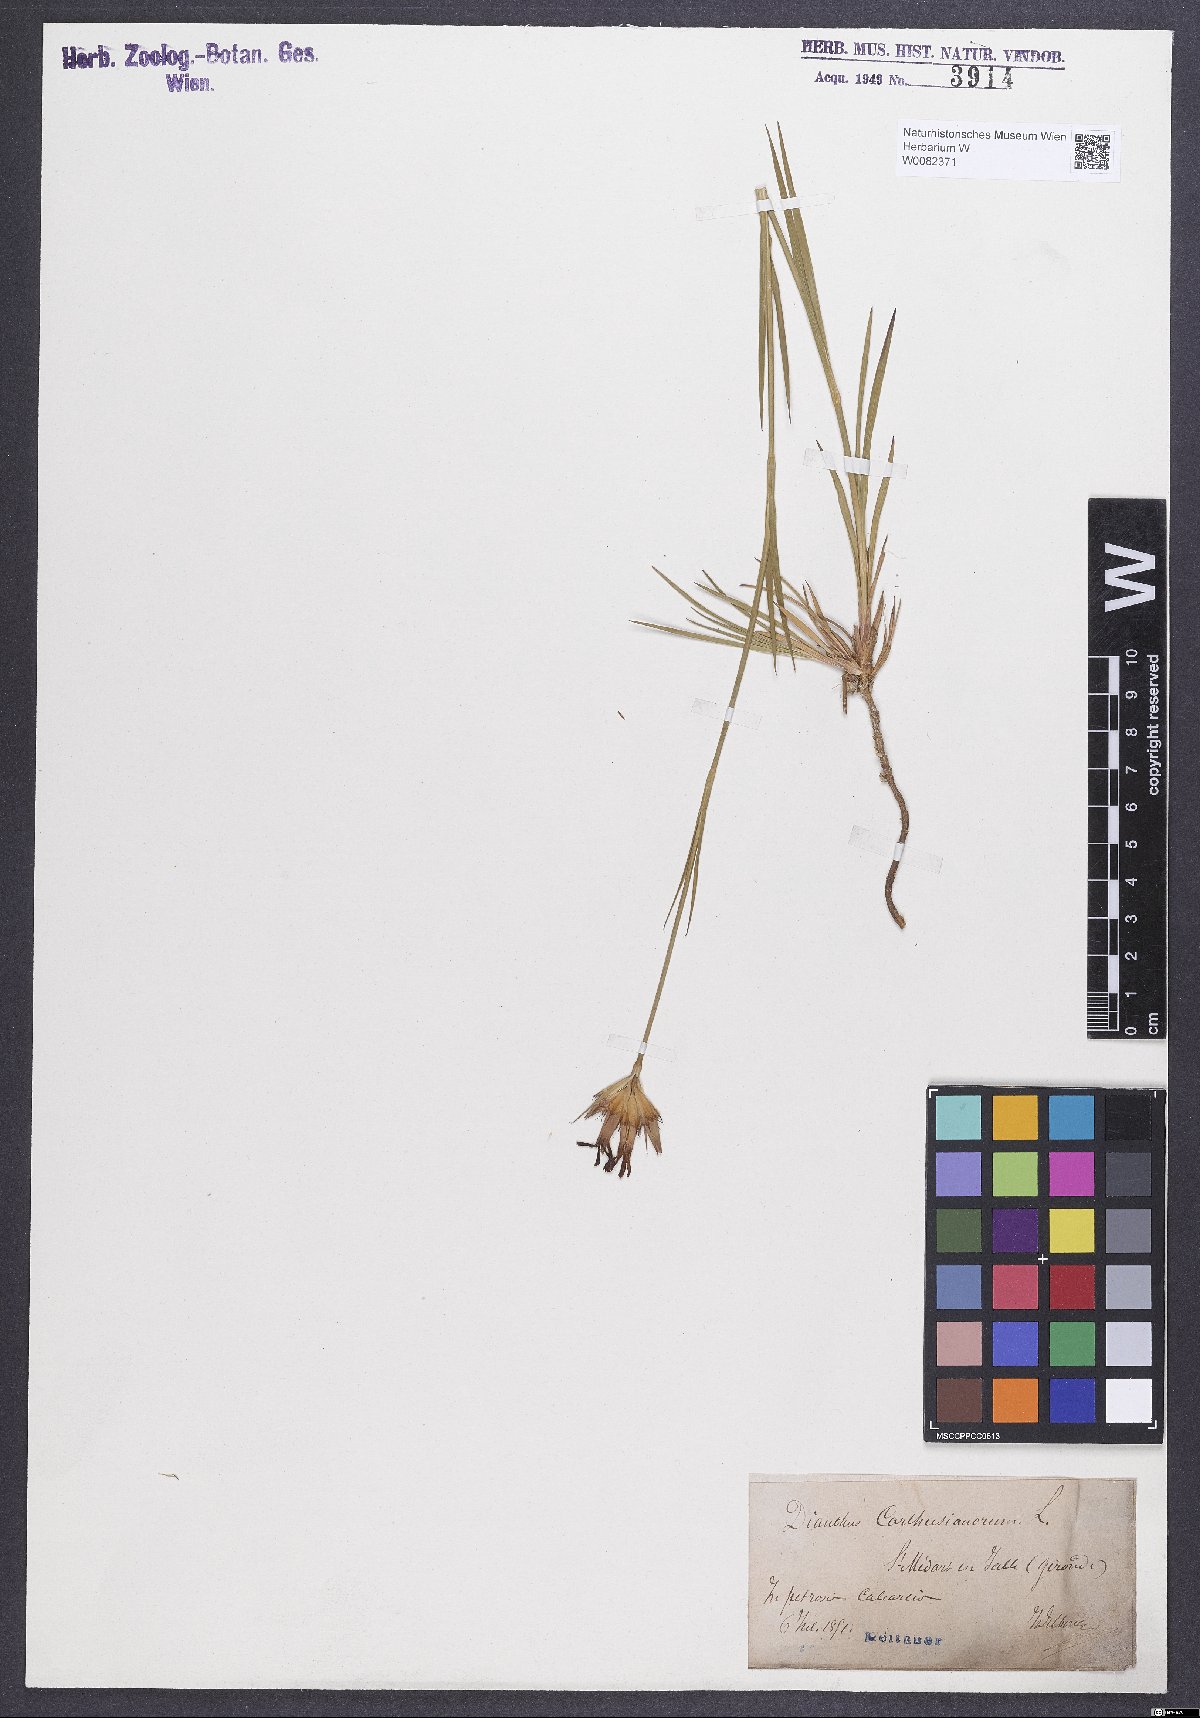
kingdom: Plantae
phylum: Tracheophyta
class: Magnoliopsida
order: Caryophyllales
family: Caryophyllaceae
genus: Dianthus
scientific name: Dianthus carthusianorum
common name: Carthusian pink
